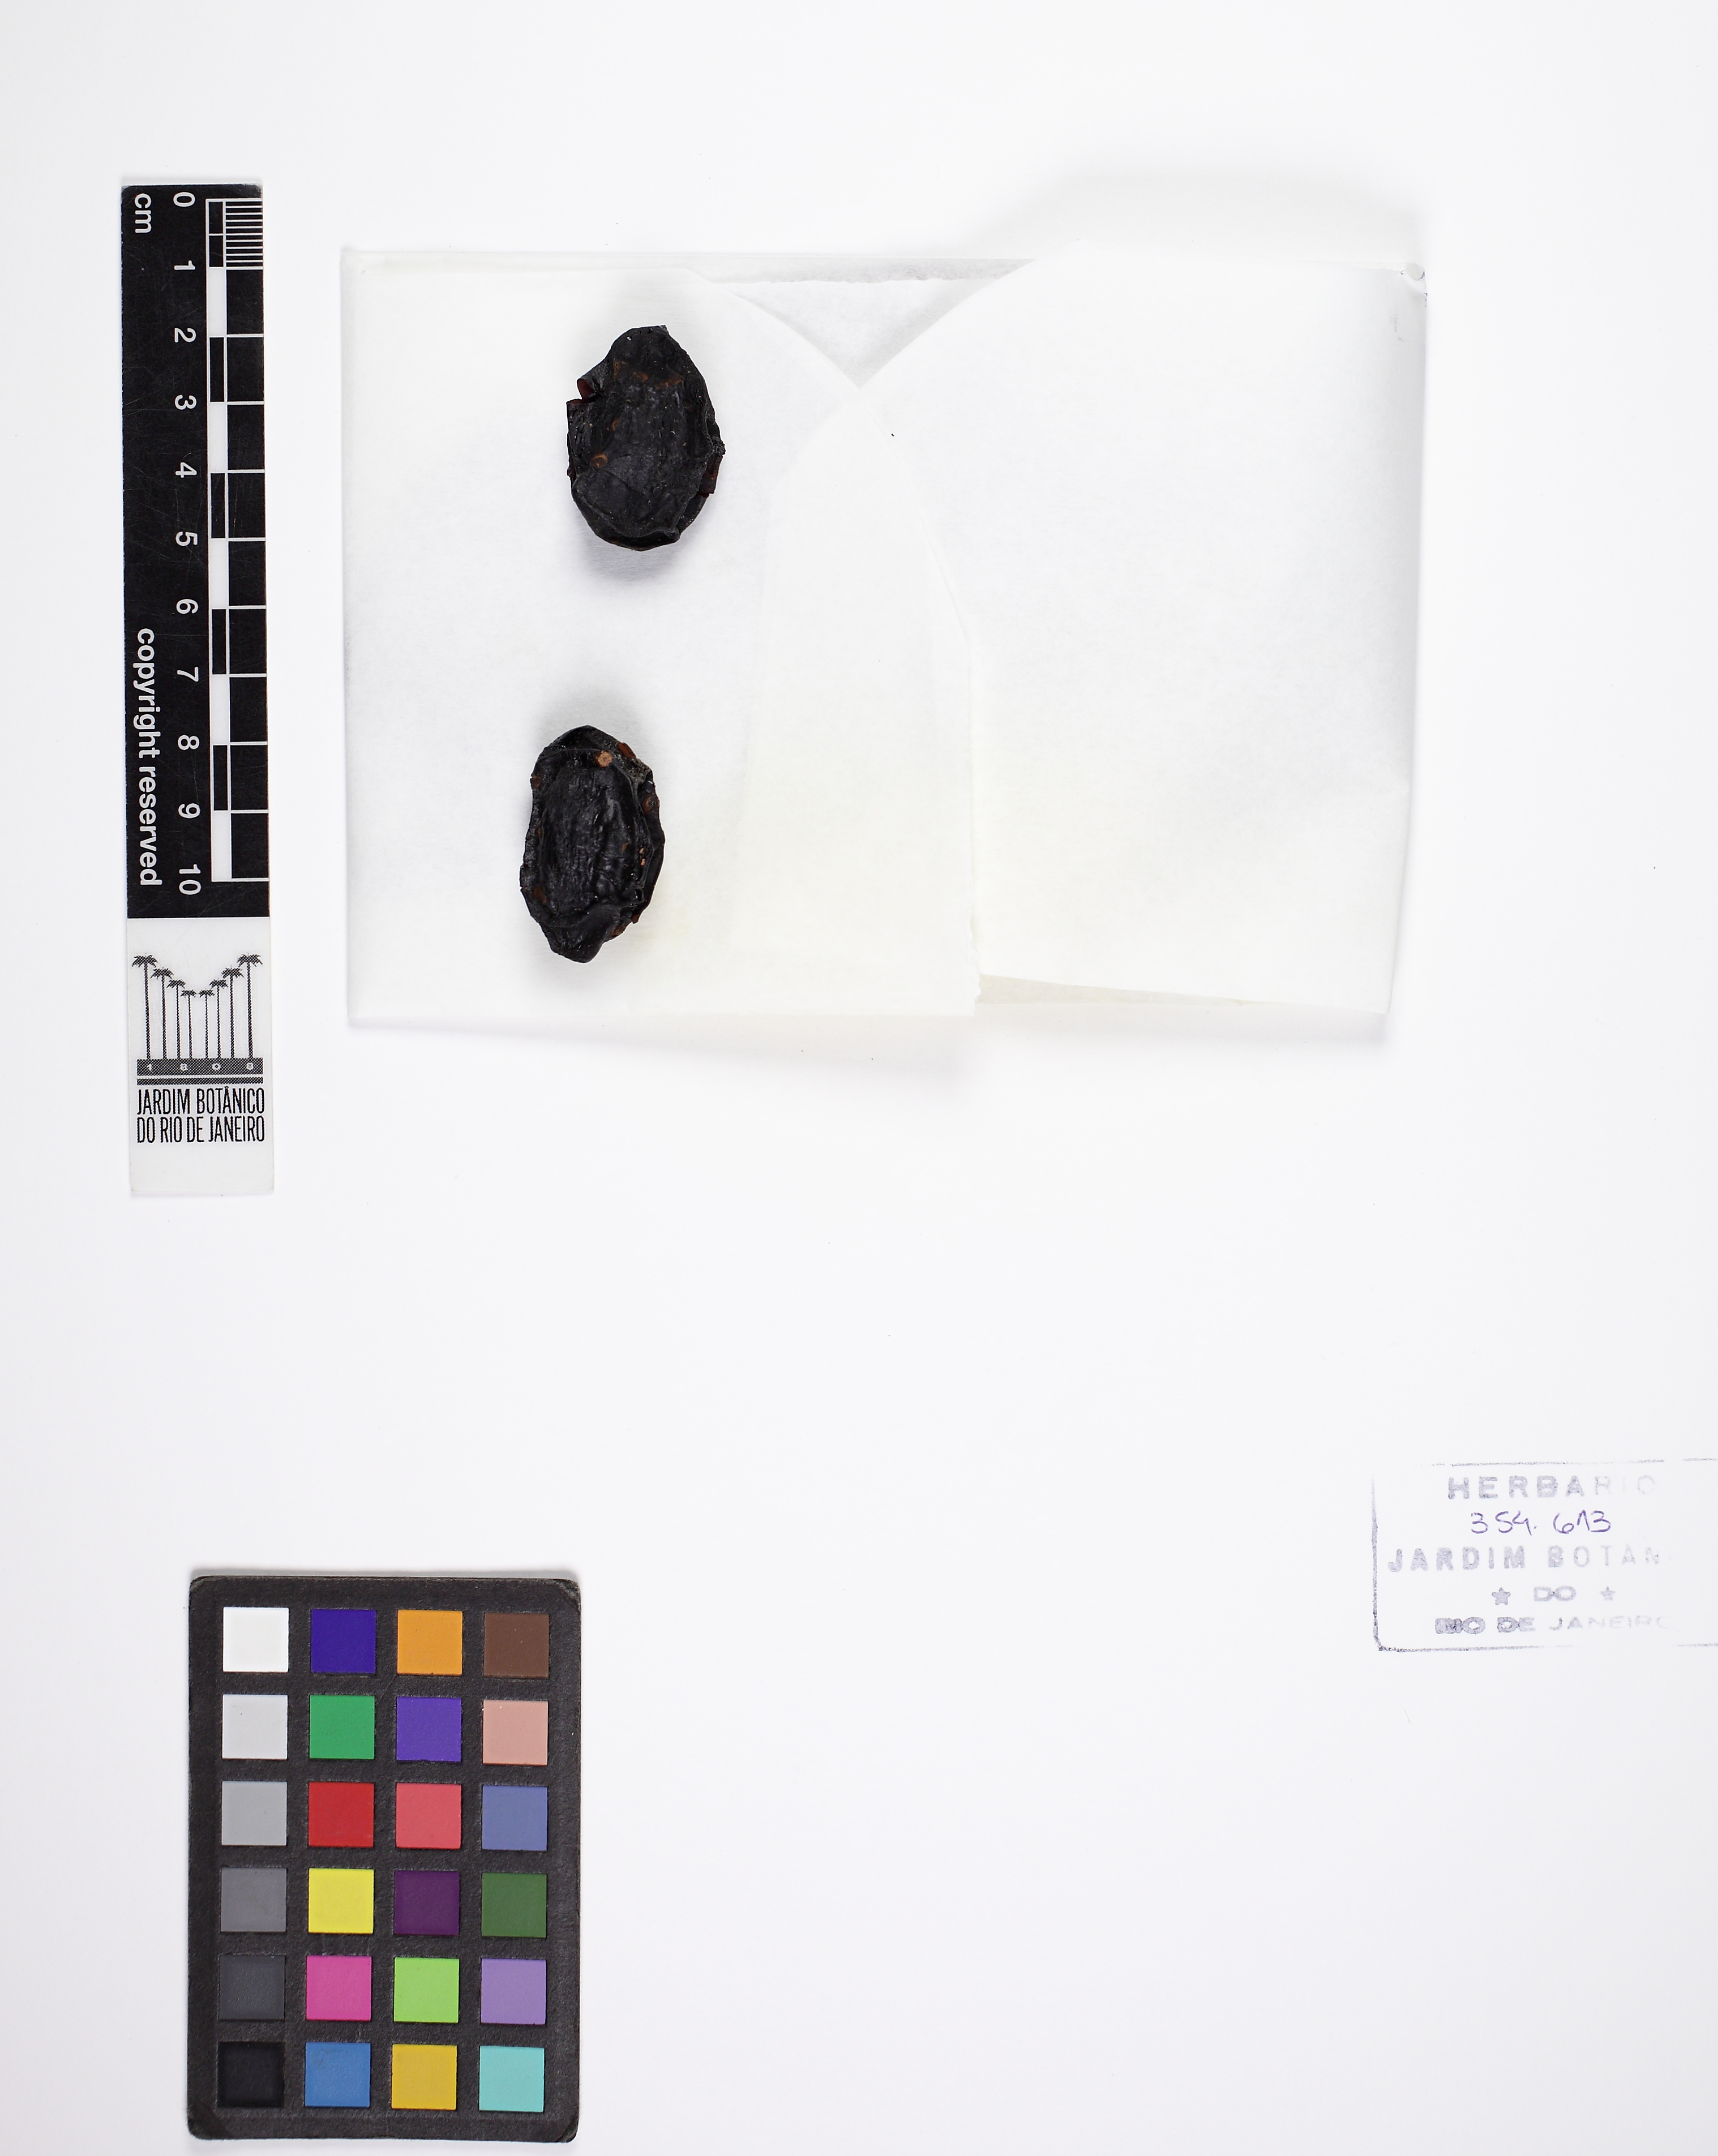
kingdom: Plantae
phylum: Tracheophyta
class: Magnoliopsida
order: Myrtales
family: Combretaceae
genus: Terminalia
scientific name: Terminalia corrugata
